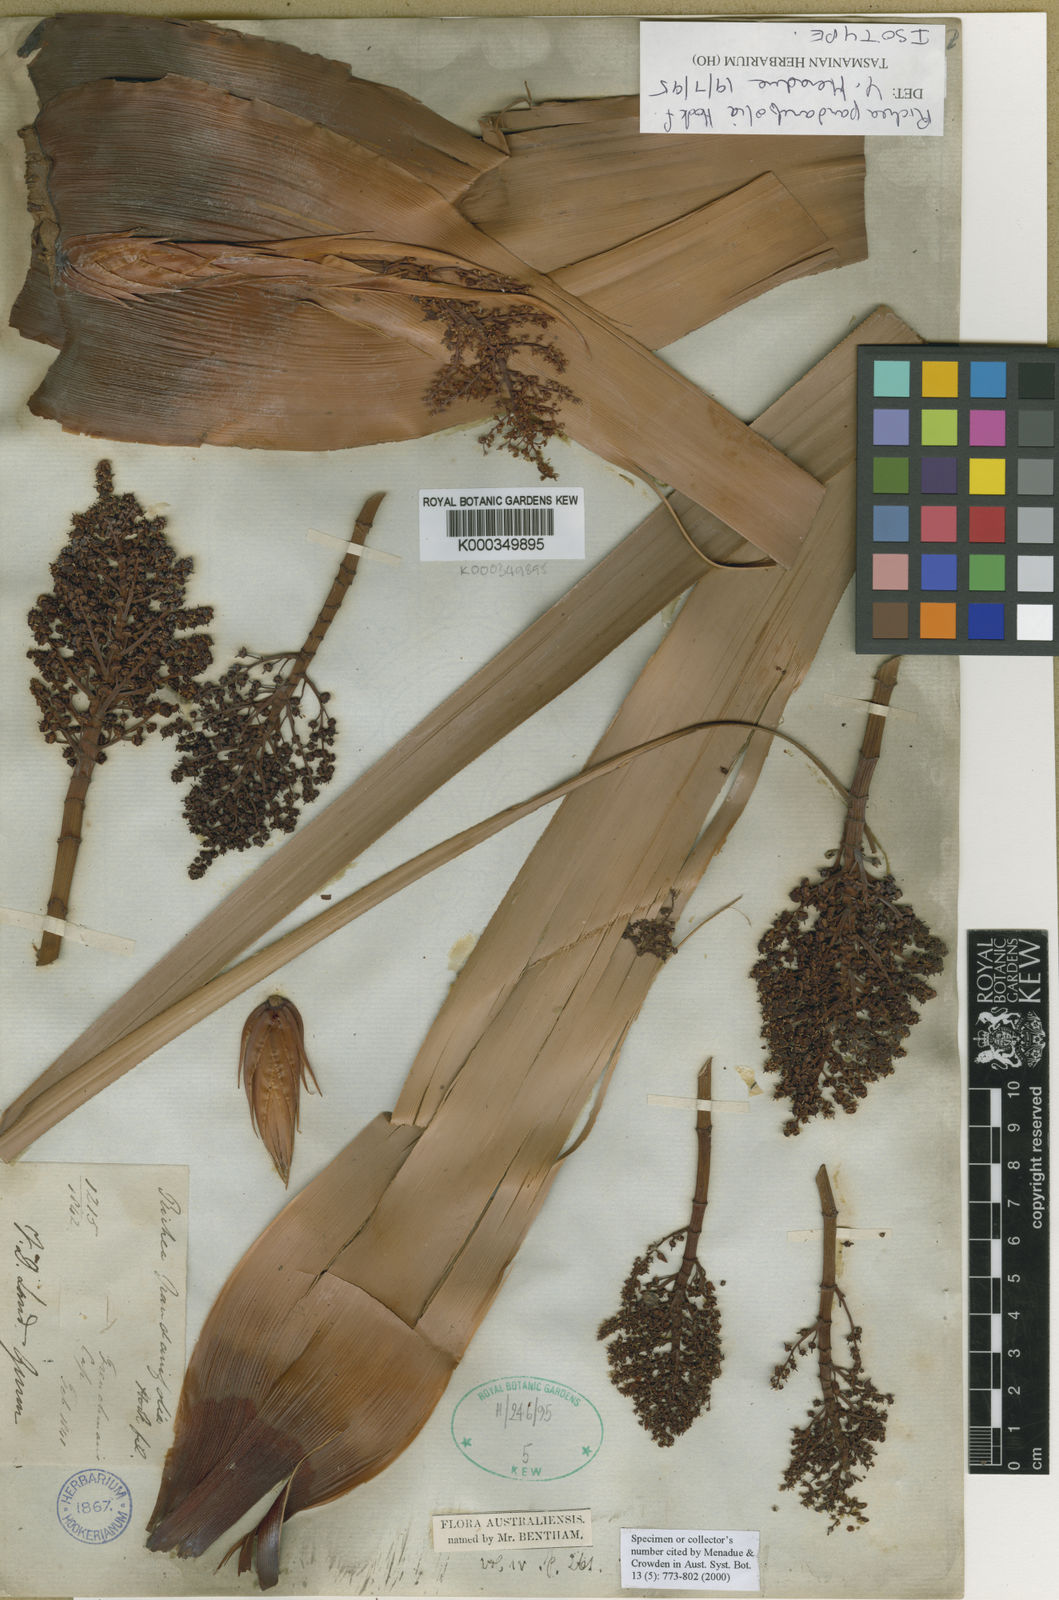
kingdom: Plantae
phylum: Tracheophyta
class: Magnoliopsida
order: Ericales
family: Ericaceae
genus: Dracophyllum
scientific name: Dracophyllum pandanifolium
